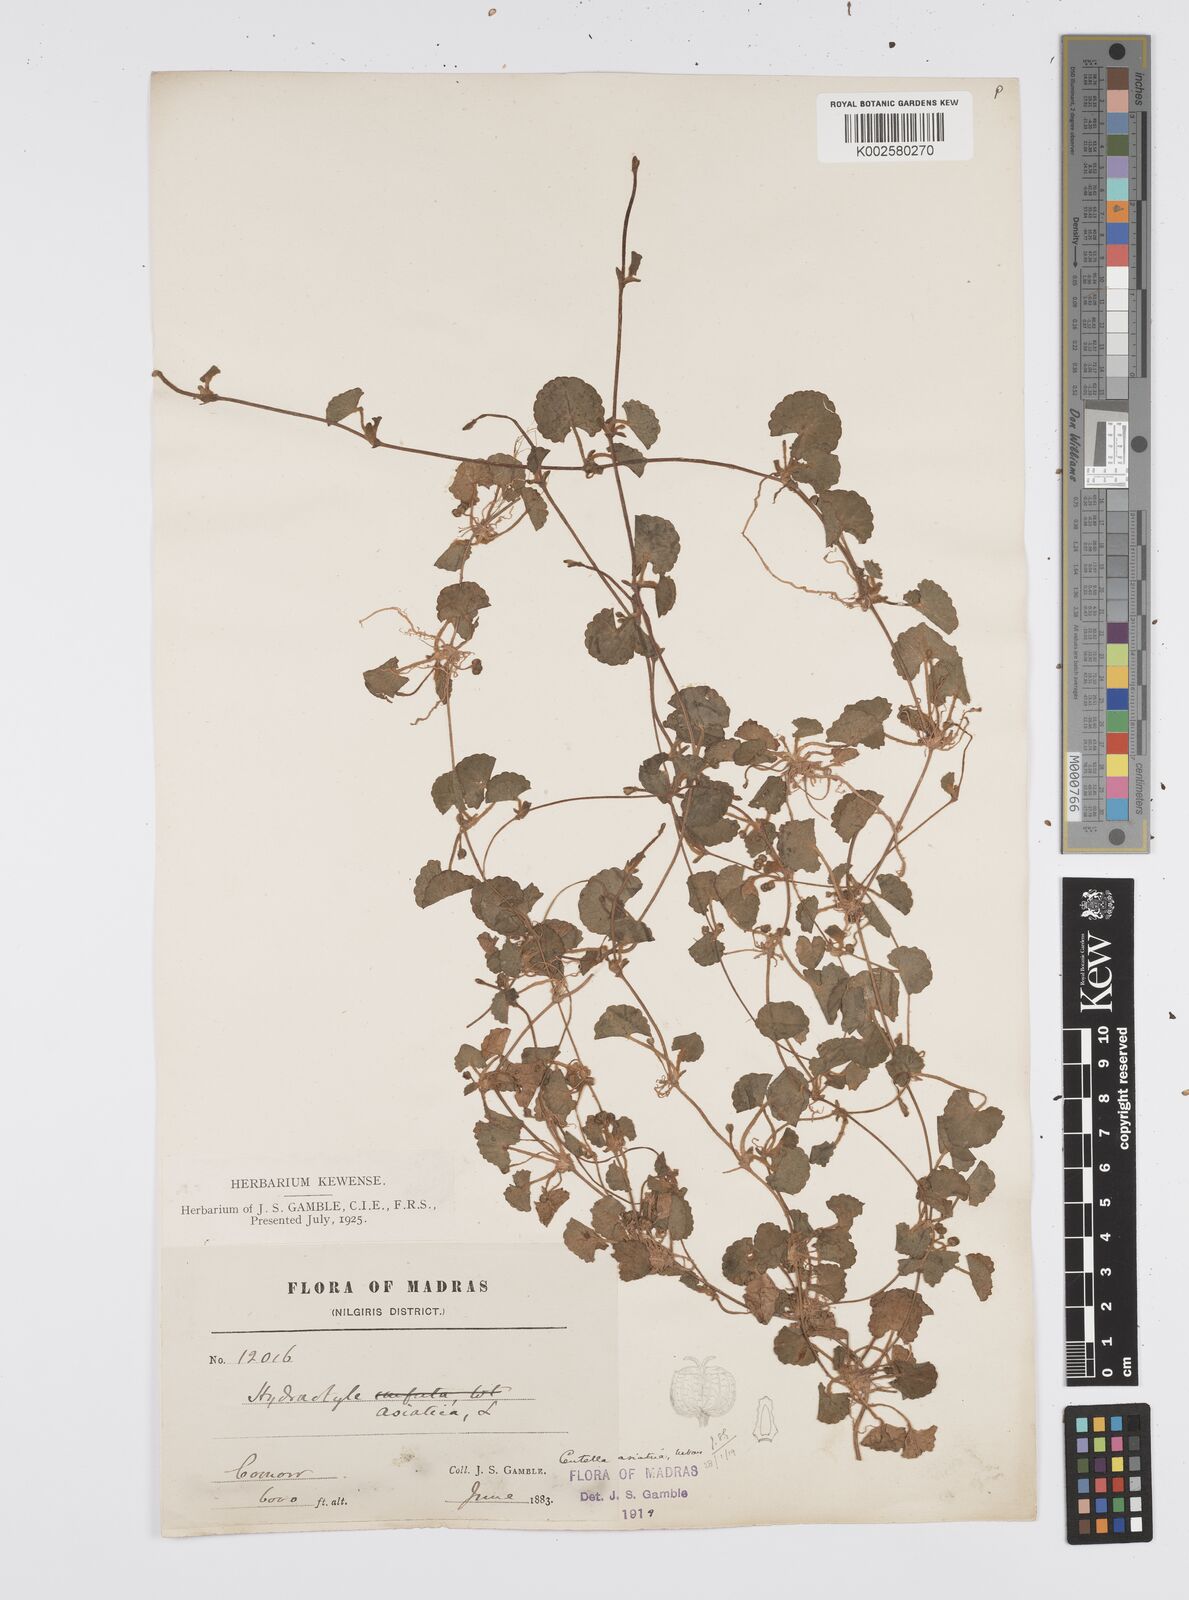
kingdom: Plantae
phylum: Tracheophyta
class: Magnoliopsida
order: Apiales
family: Apiaceae
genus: Centella
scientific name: Centella asiatica
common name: Spadeleaf
